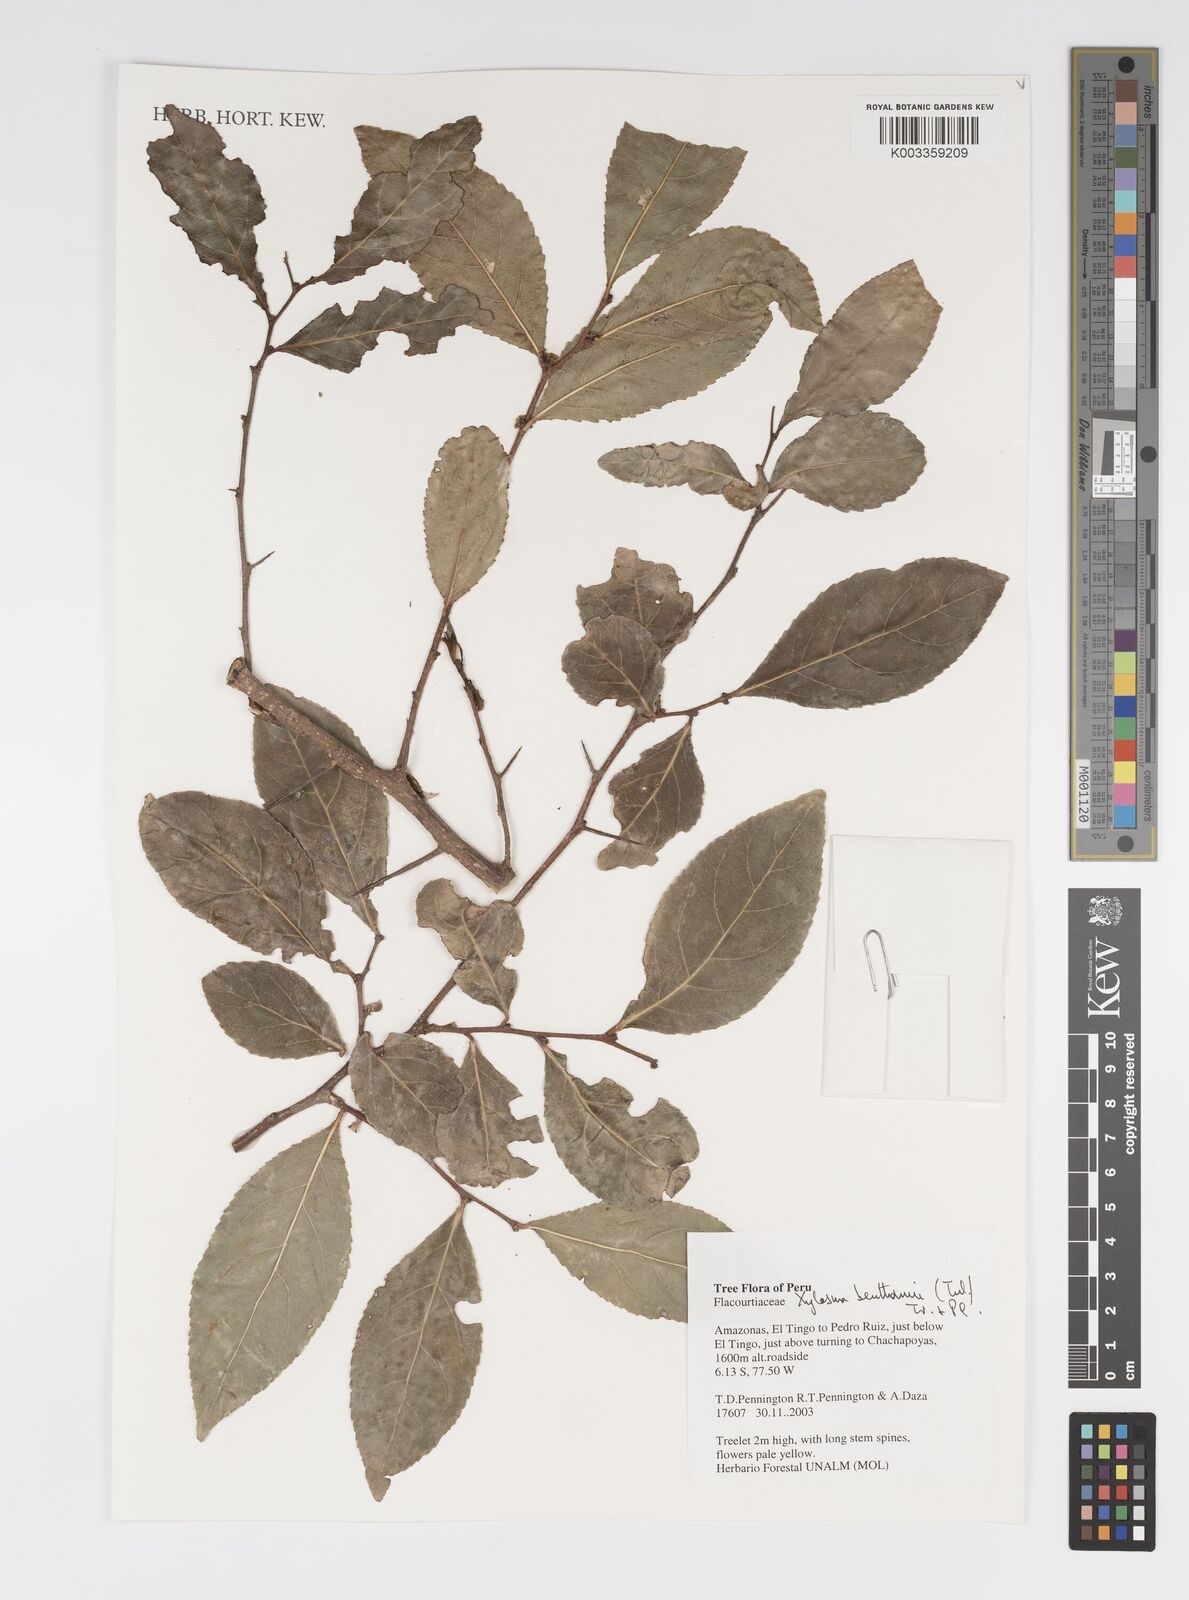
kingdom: Plantae
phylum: Tracheophyta
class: Magnoliopsida
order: Malpighiales
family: Salicaceae
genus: Xylosma
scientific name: Xylosma benthamii
